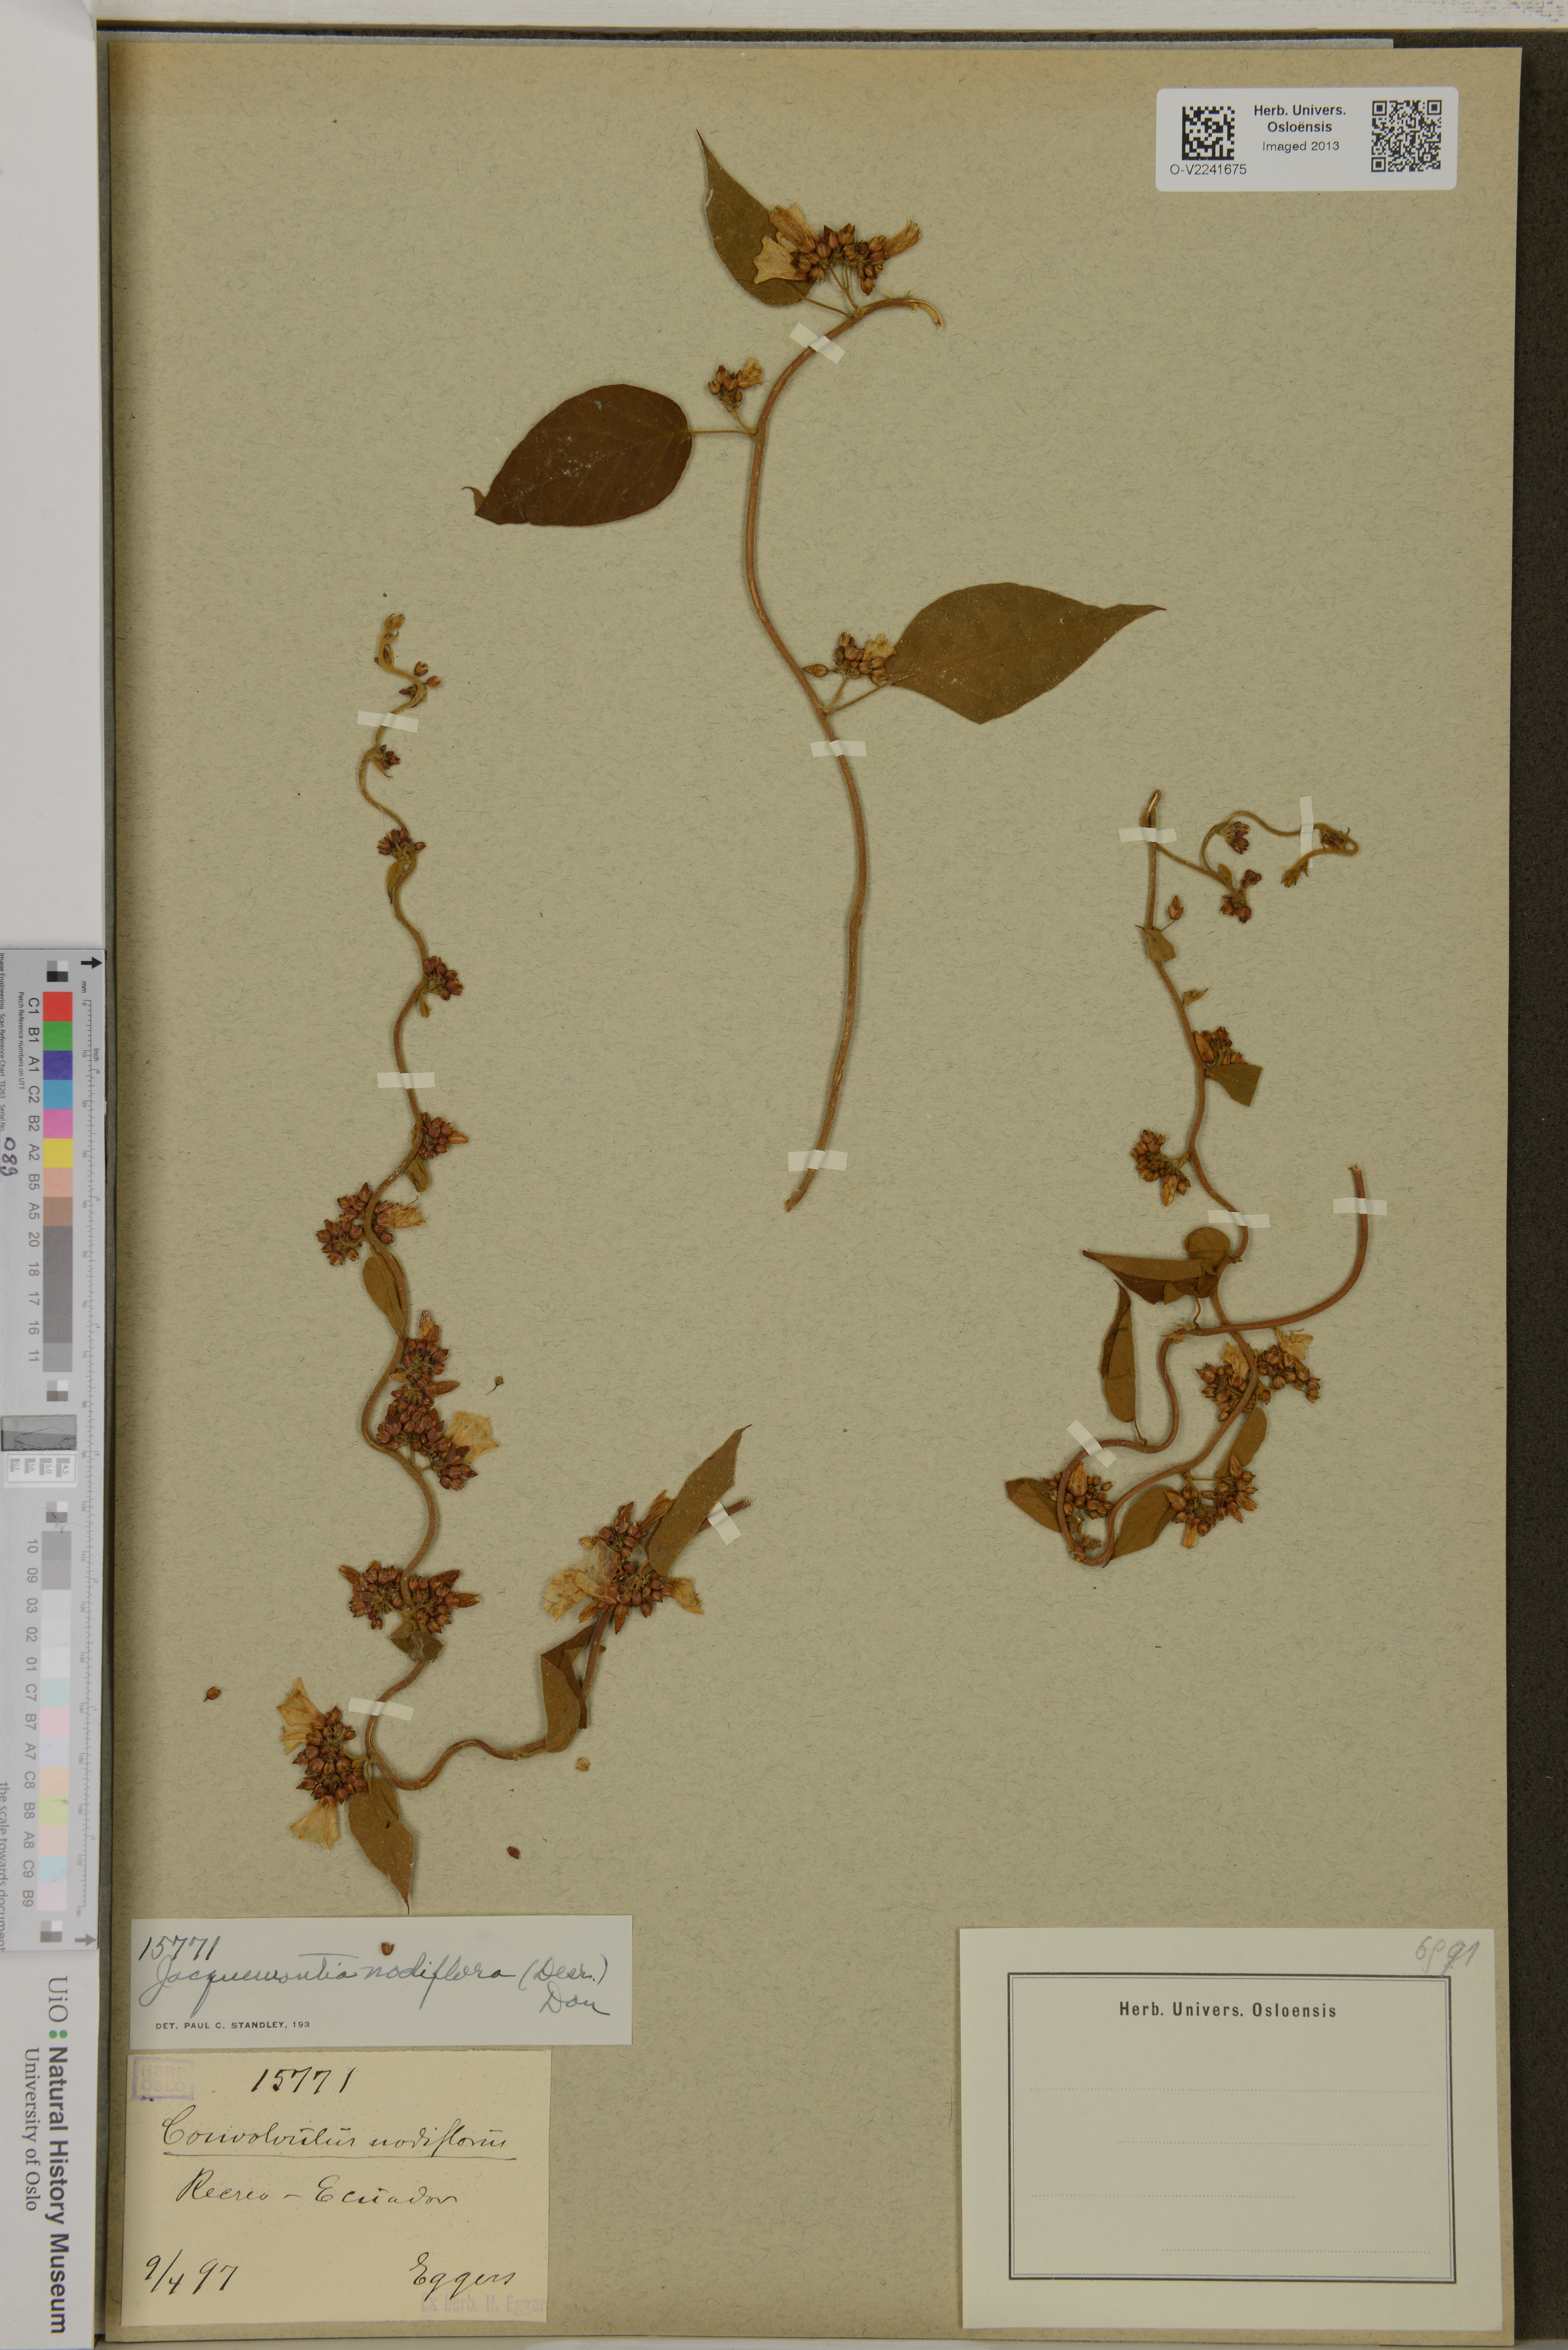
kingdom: Plantae
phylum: Tracheophyta
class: Magnoliopsida
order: Solanales
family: Convolvulaceae
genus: Convolvulus
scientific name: Convolvulus nodiflorus
